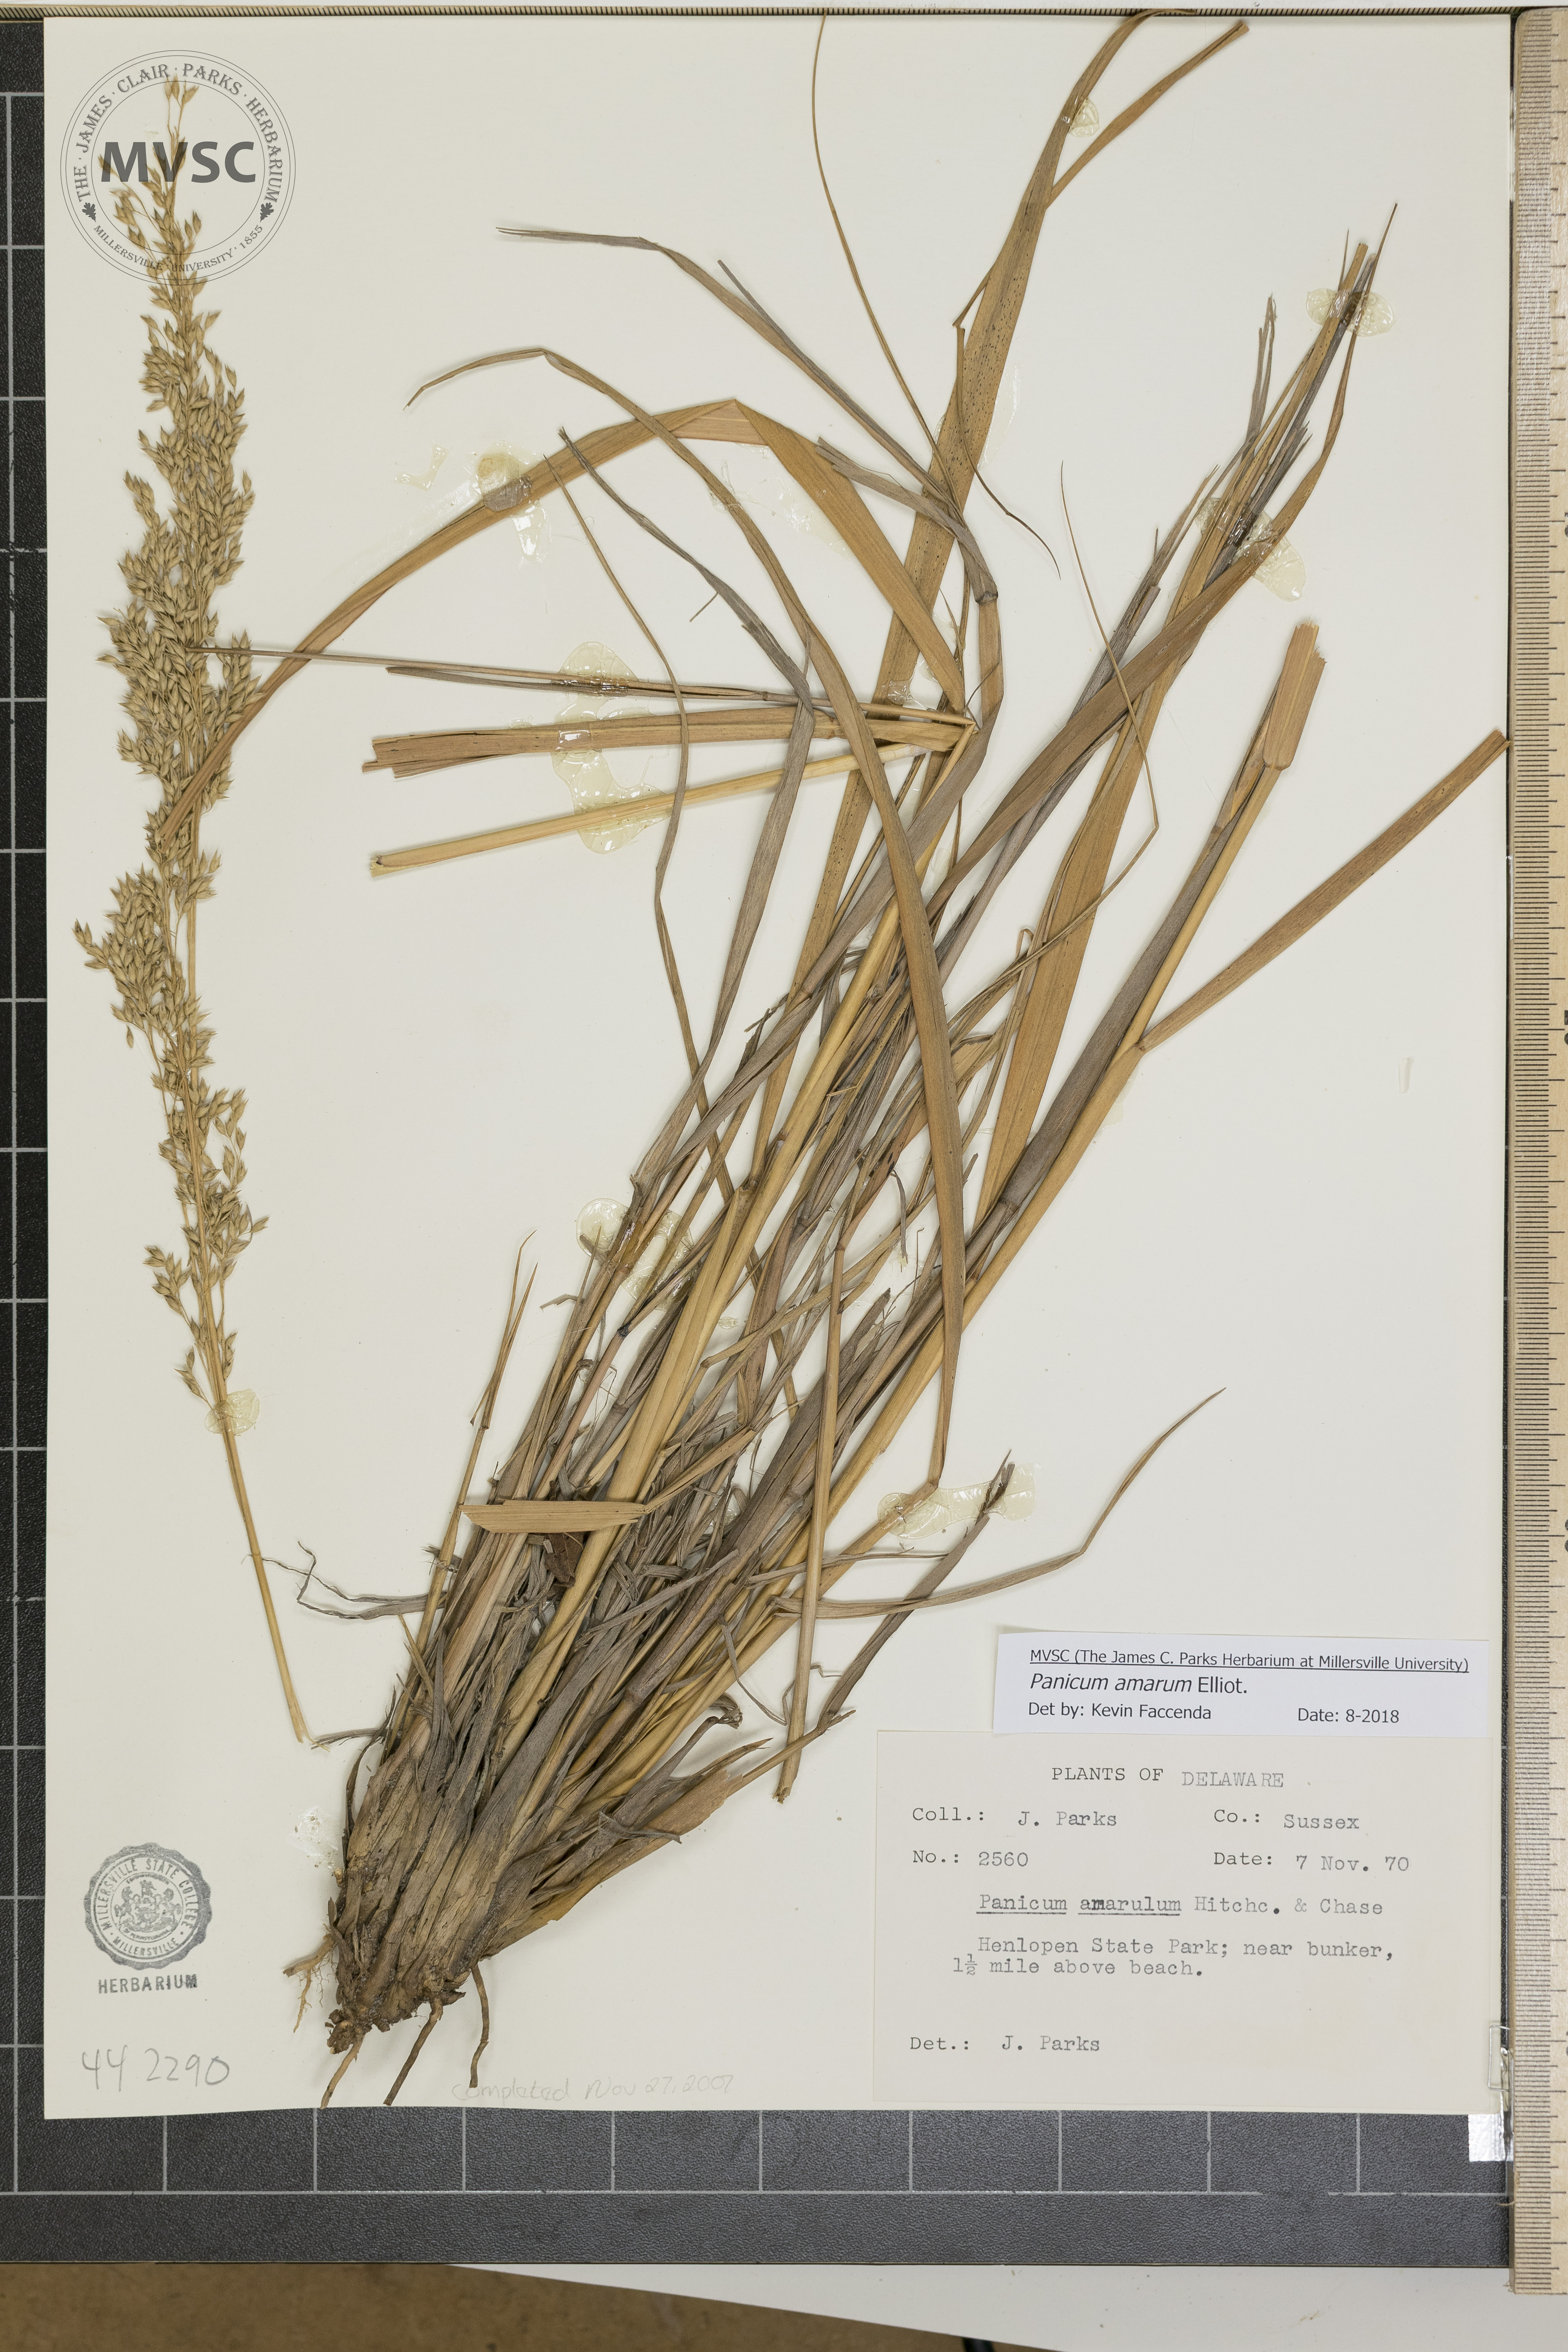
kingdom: Plantae
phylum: Tracheophyta
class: Liliopsida
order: Poales
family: Poaceae
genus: Panicum
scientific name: Panicum amarum
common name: Bitter panicum
